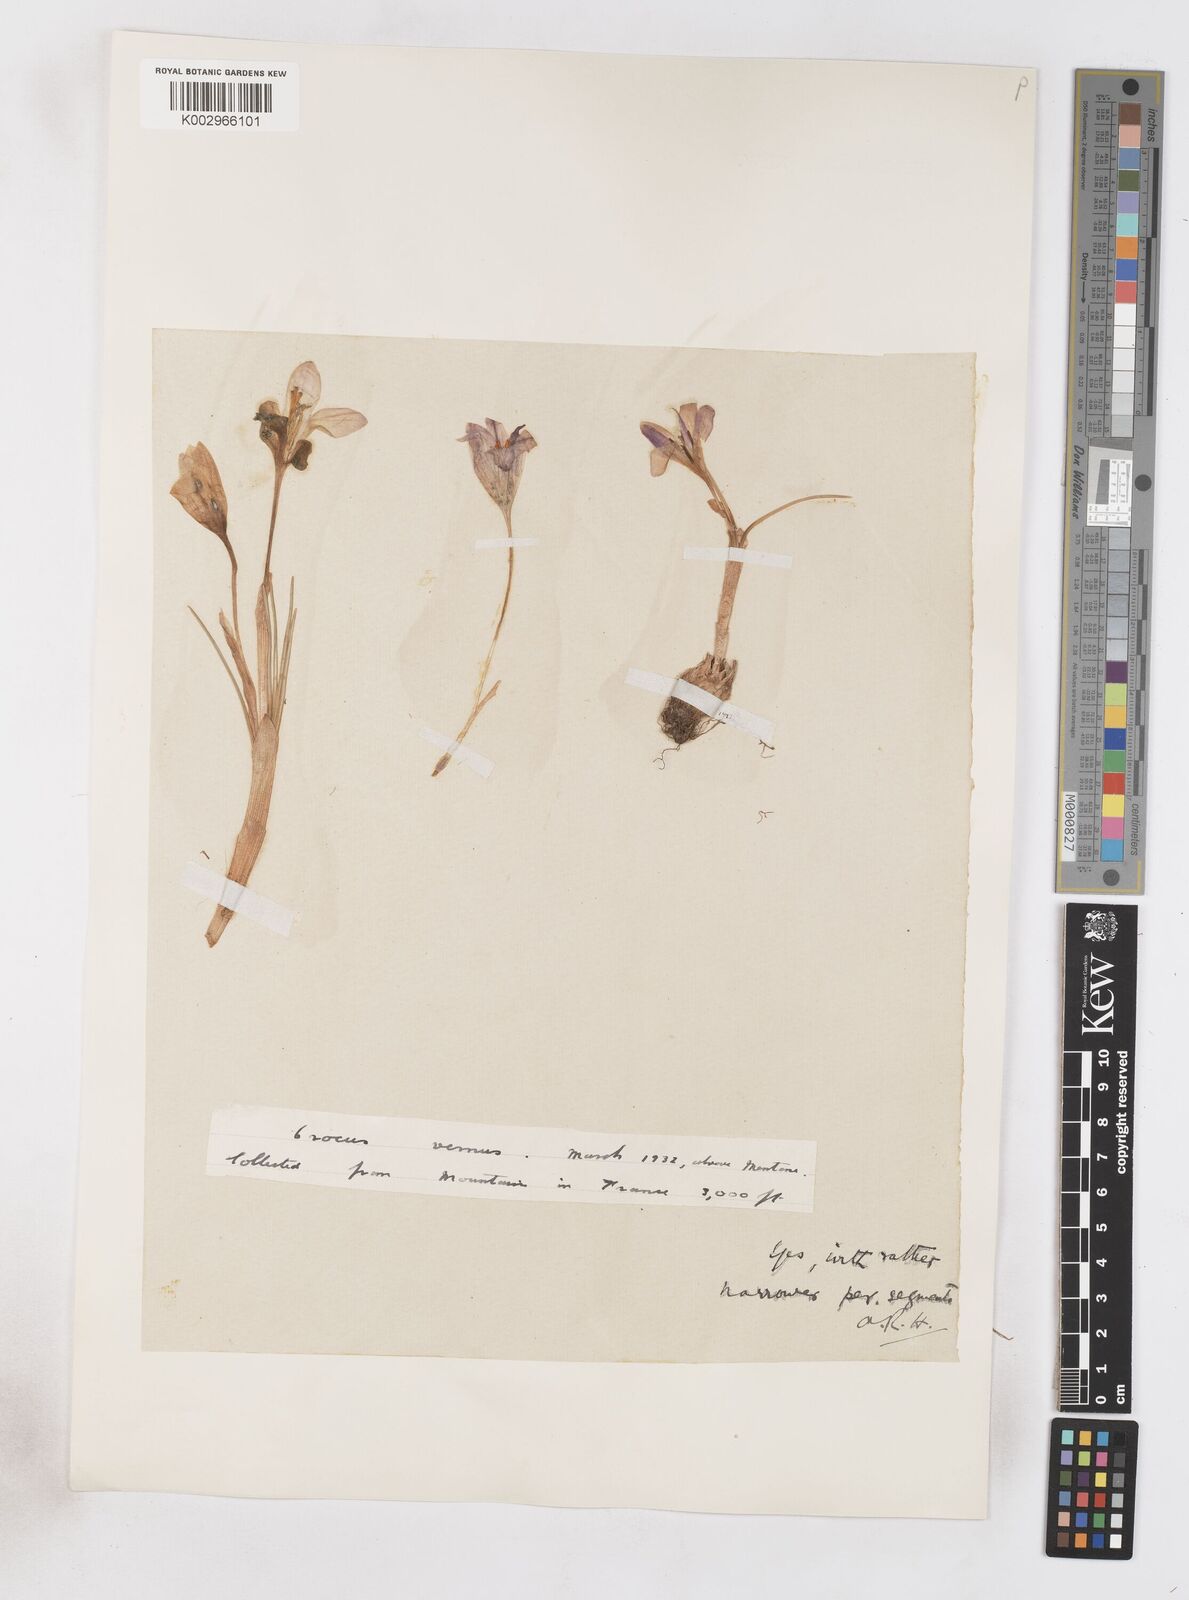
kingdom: Plantae
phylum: Tracheophyta
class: Liliopsida
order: Asparagales
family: Iridaceae
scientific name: Iridaceae
